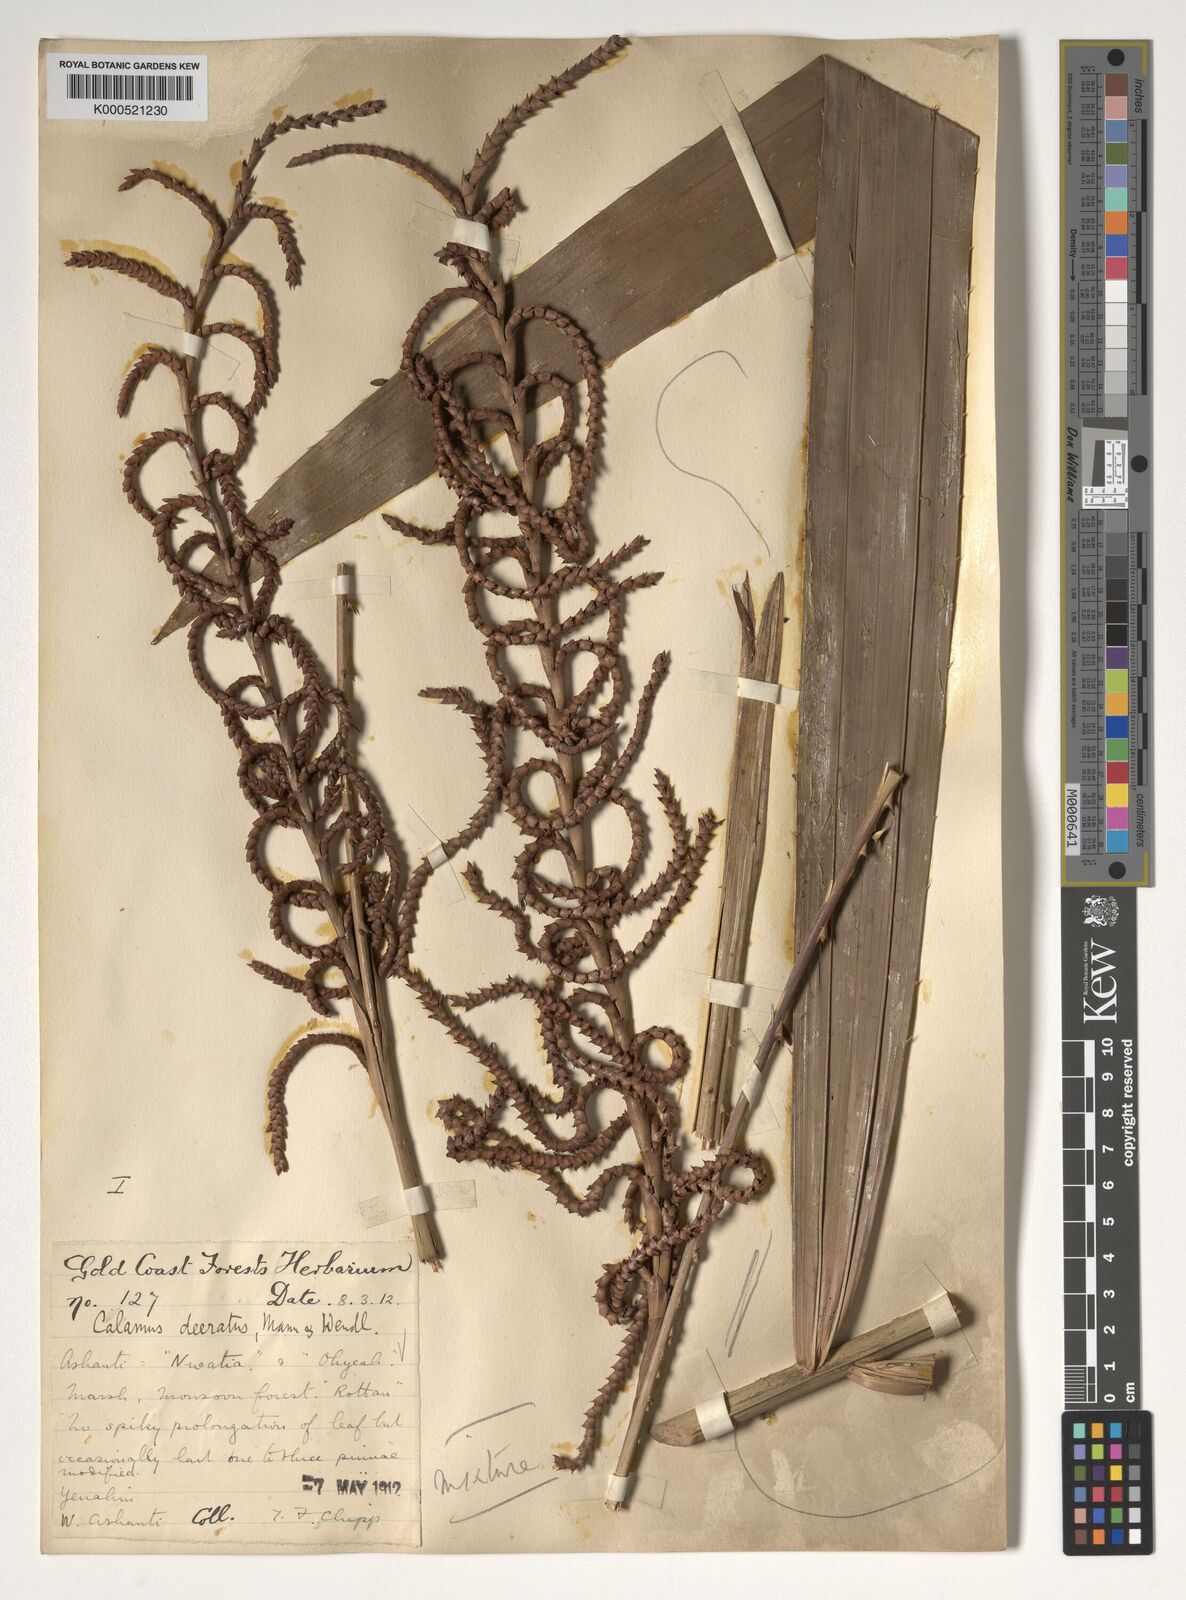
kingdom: Plantae
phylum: Tracheophyta
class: Liliopsida
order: Arecales
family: Arecaceae
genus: Calamus
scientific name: Calamus deerratus
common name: Rattan
